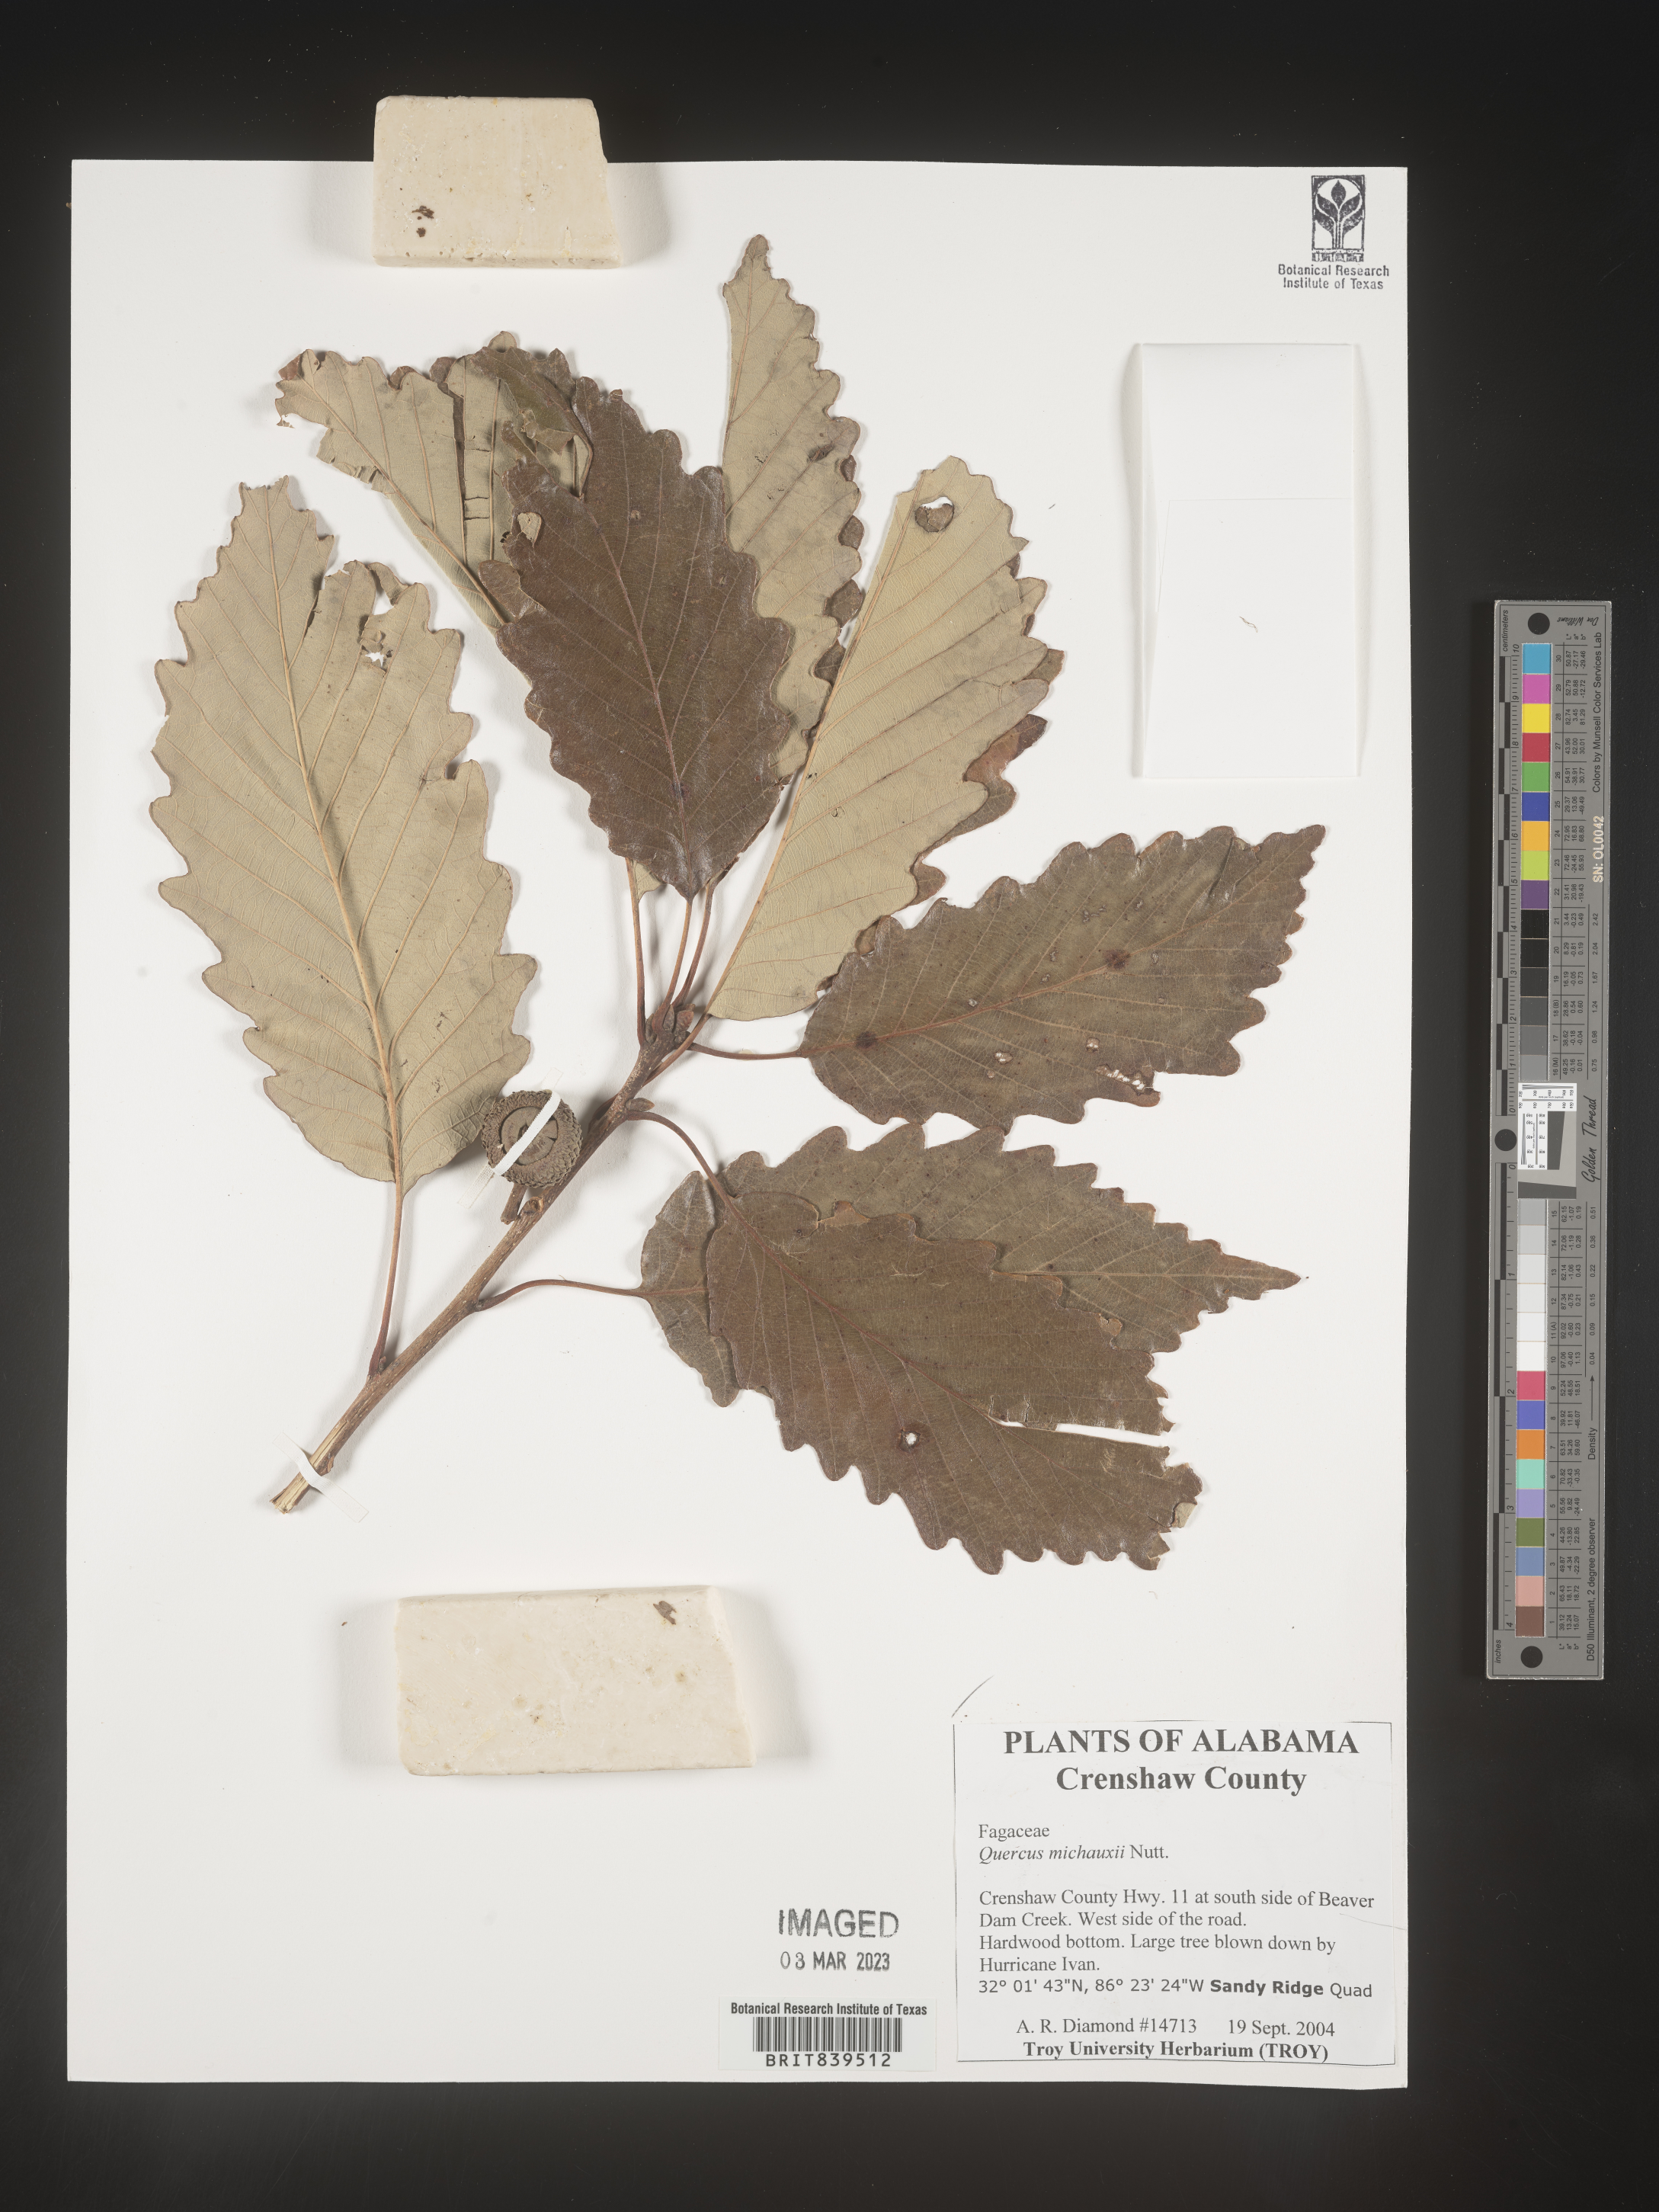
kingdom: Plantae
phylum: Tracheophyta
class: Magnoliopsida
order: Fagales
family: Fagaceae
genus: Quercus
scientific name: Quercus michauxii
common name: Swamp chestnut oak
